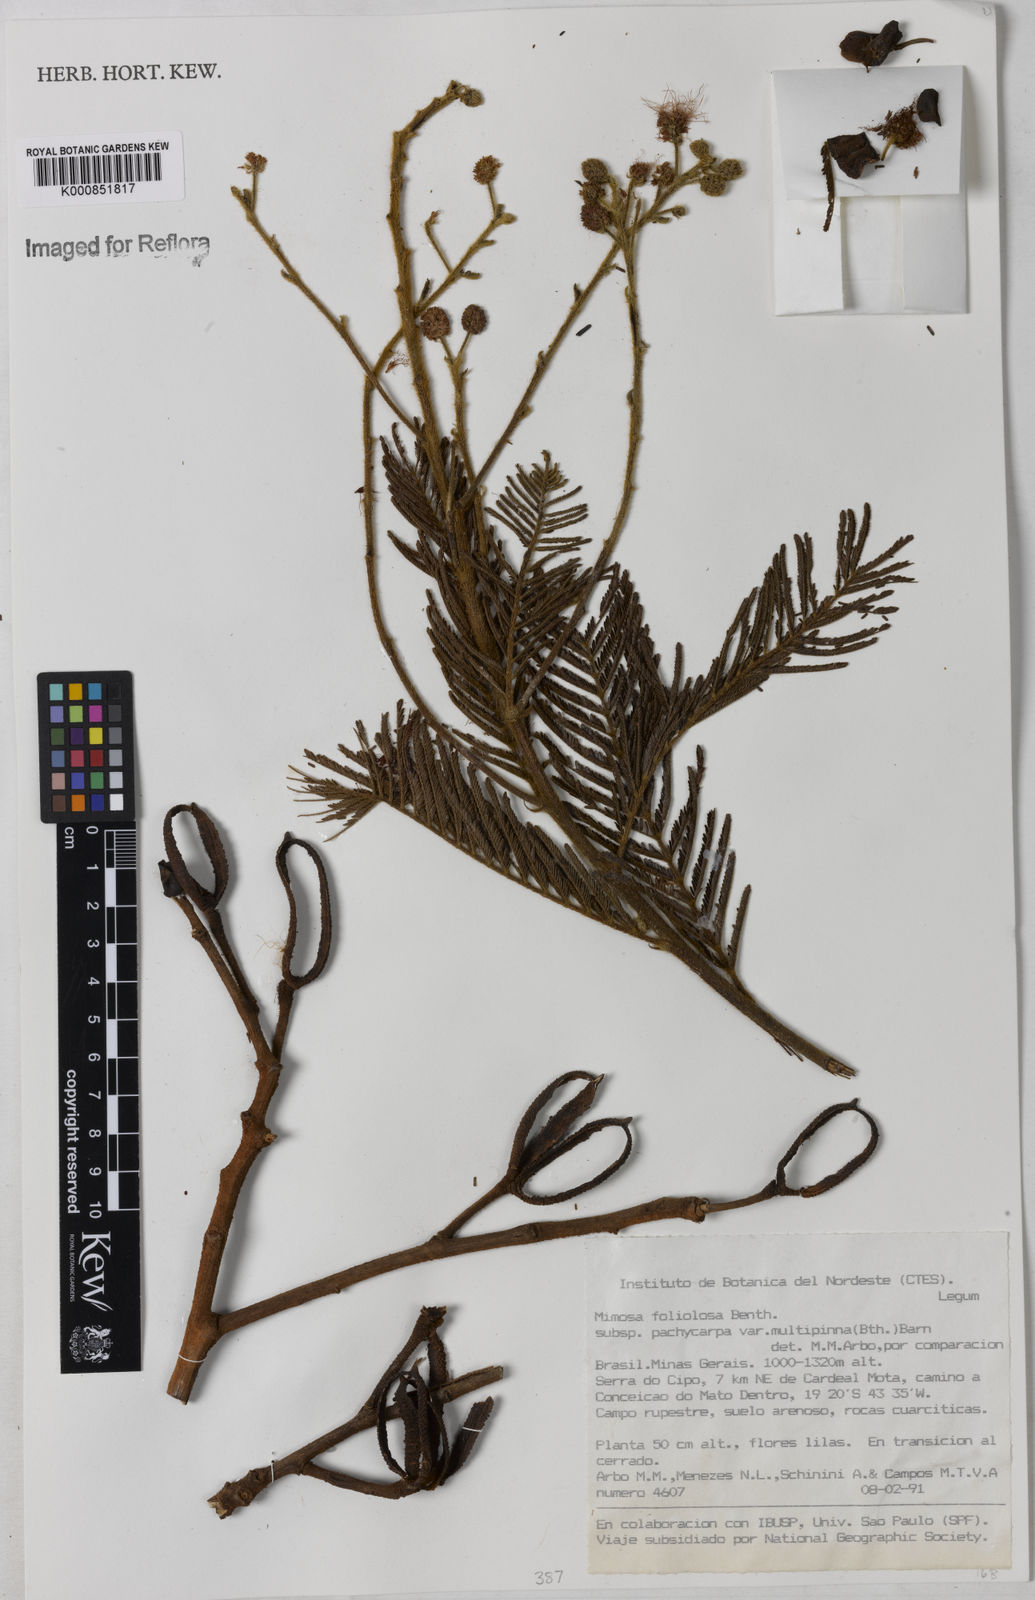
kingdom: Plantae
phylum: Tracheophyta
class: Magnoliopsida
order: Fabales
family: Fabaceae
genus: Mimosa
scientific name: Mimosa foliolosa
